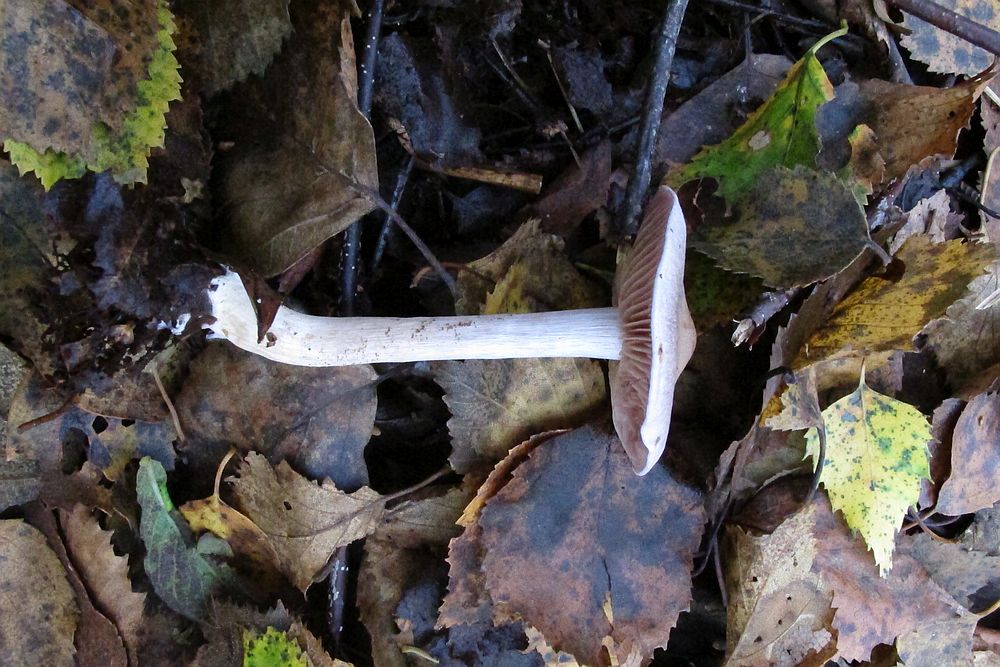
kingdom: Fungi
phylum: Basidiomycota
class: Agaricomycetes
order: Agaricales
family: Cortinariaceae
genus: Cortinarius
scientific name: Cortinarius
